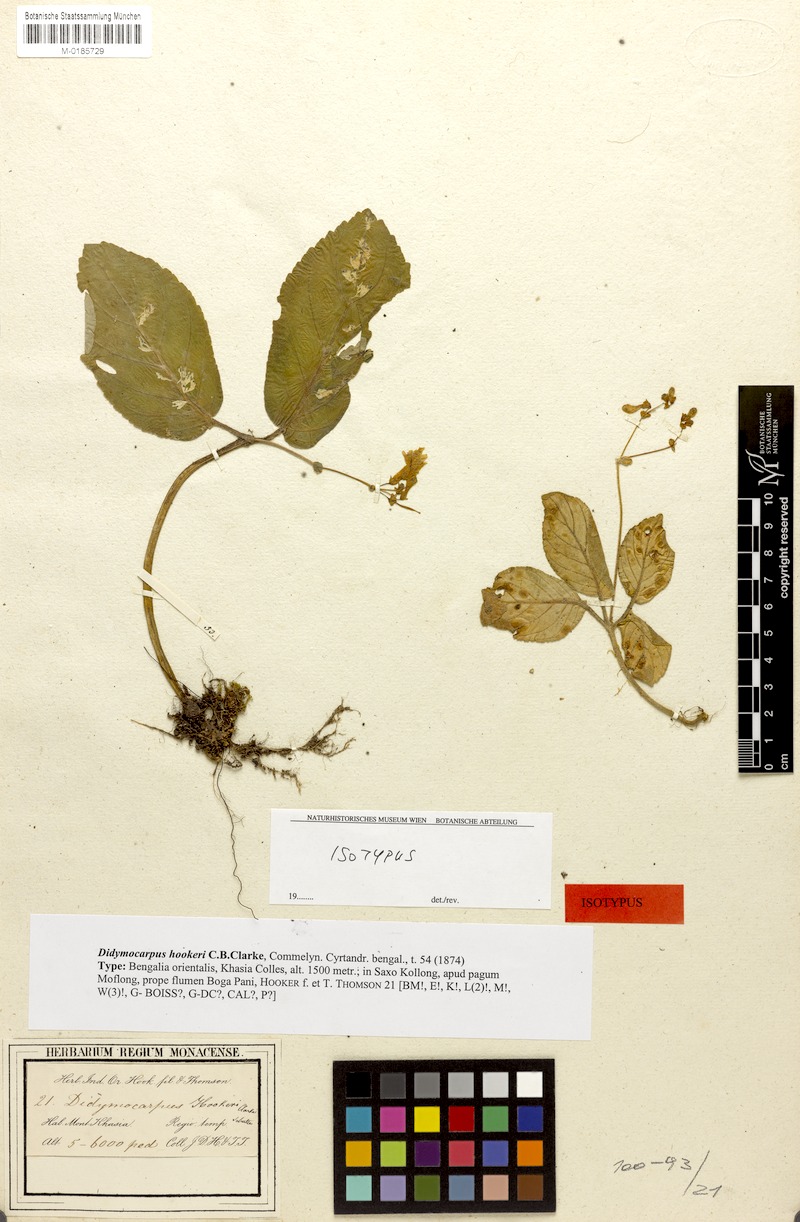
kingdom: Plantae
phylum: Tracheophyta
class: Magnoliopsida
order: Lamiales
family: Gesneriaceae
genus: Didymocarpus
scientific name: Didymocarpus hookeri
